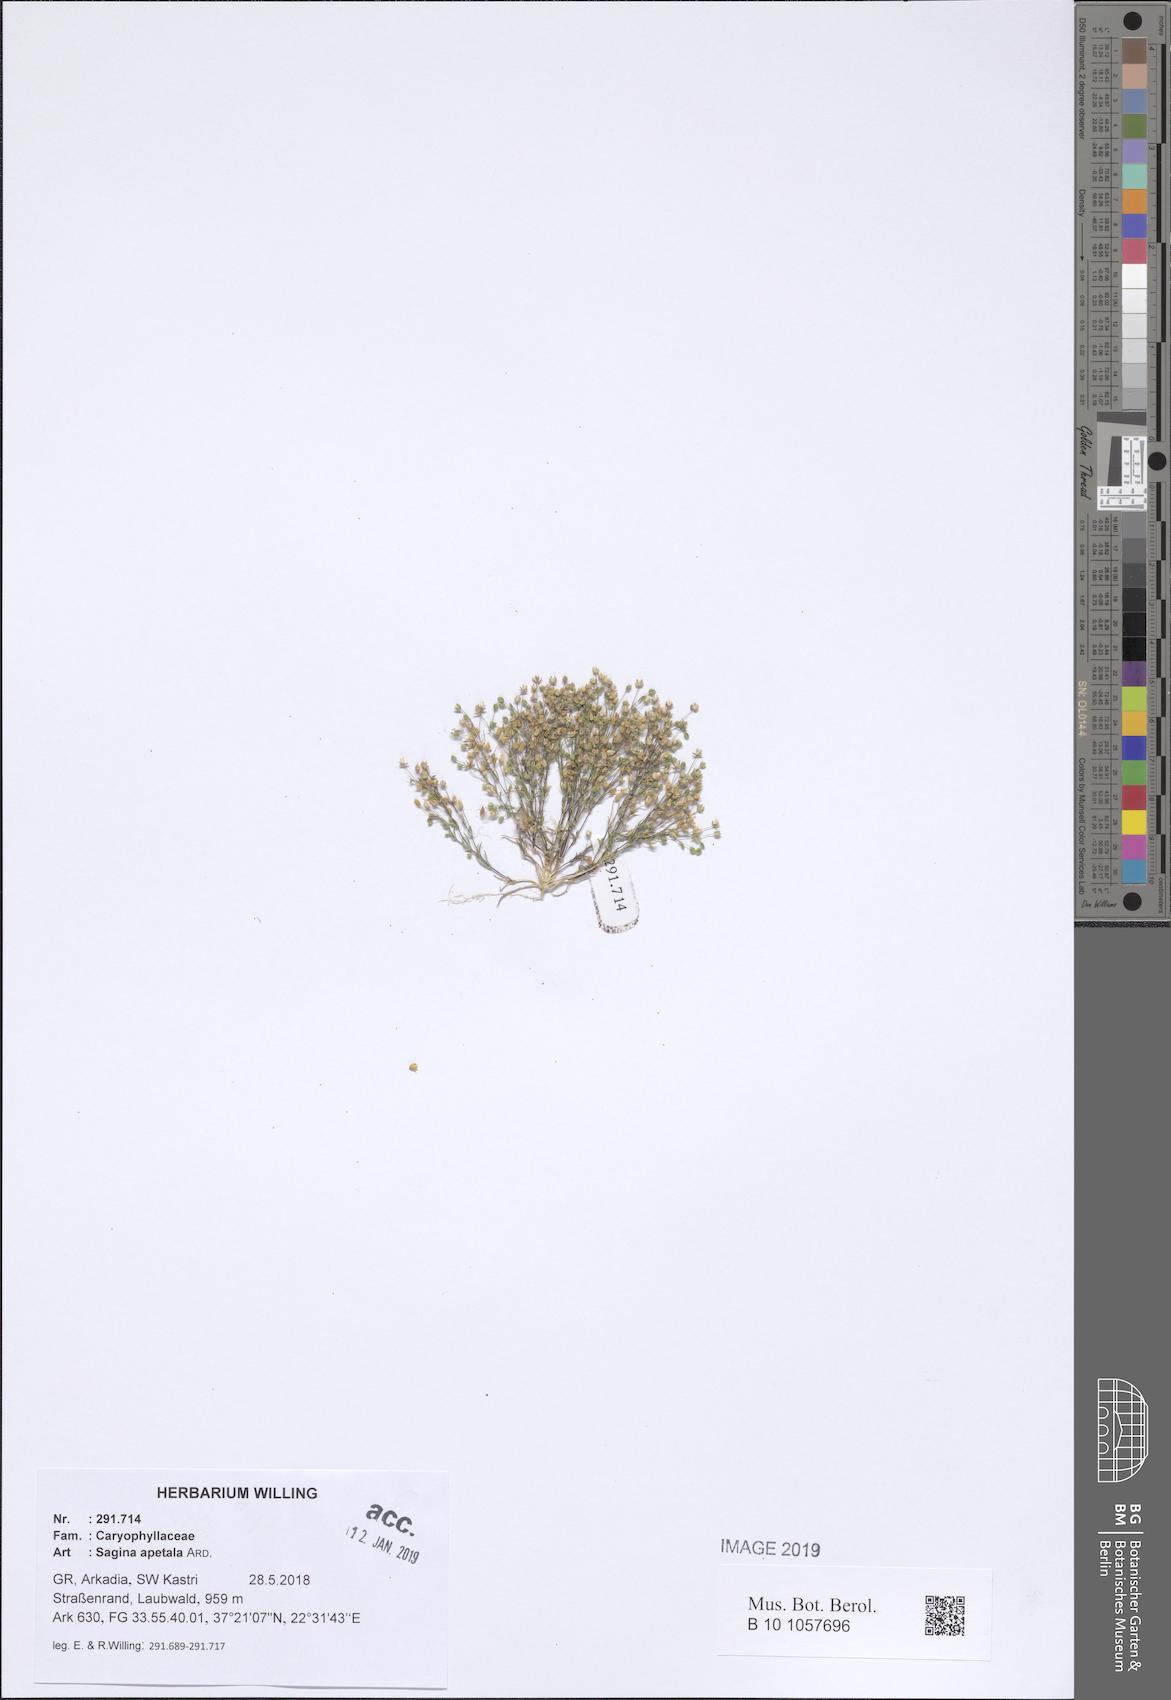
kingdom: Plantae
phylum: Tracheophyta
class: Magnoliopsida
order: Caryophyllales
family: Caryophyllaceae
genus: Sagina
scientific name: Sagina apetala
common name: Annual pearlwort
